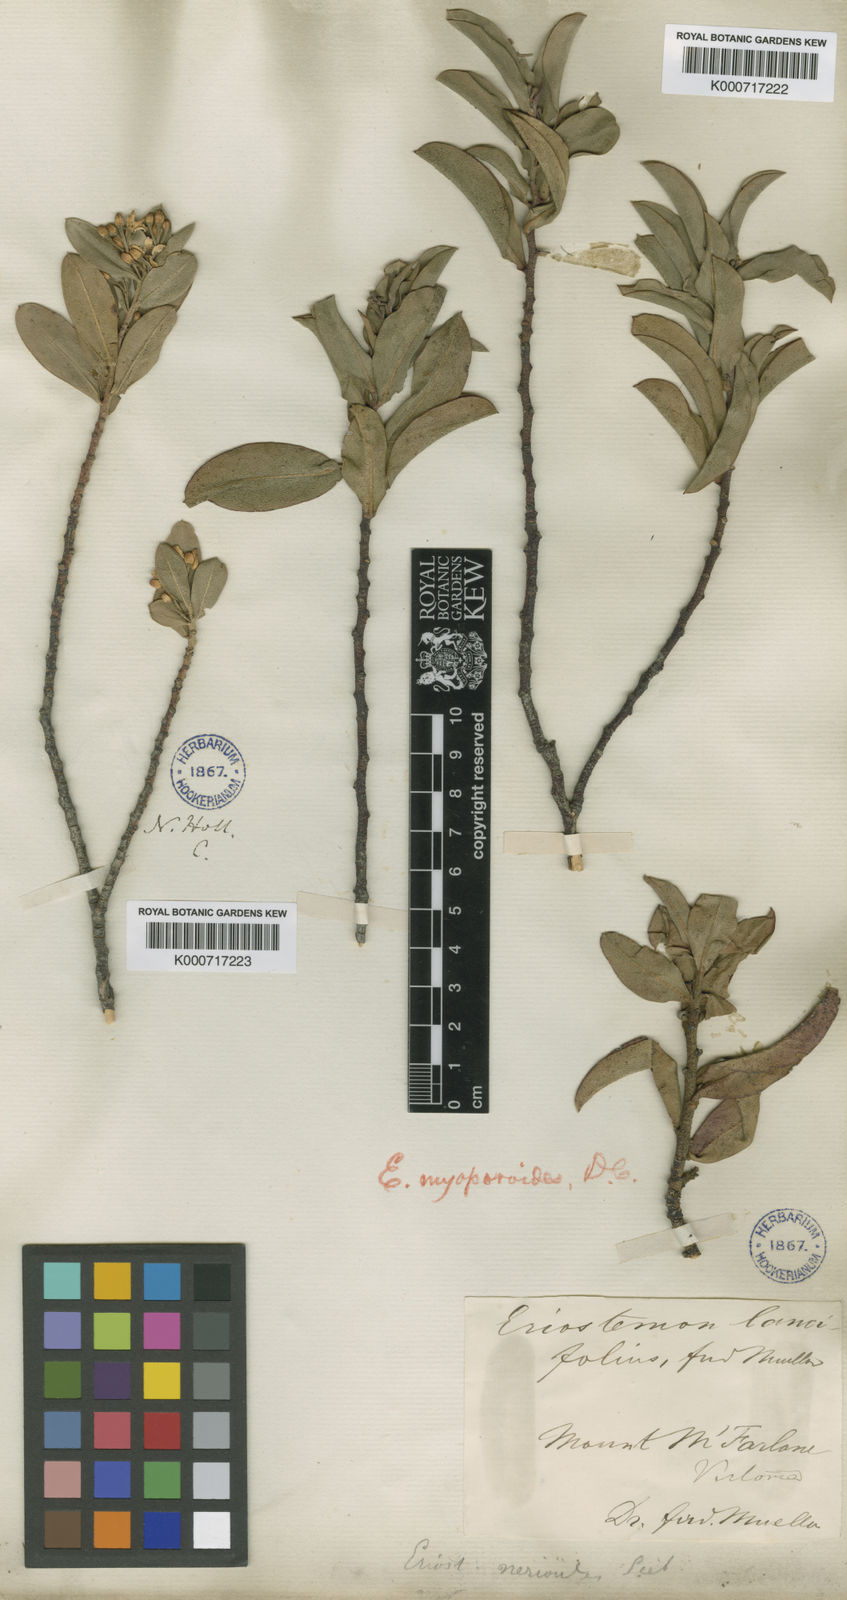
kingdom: Plantae
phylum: Tracheophyta
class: Magnoliopsida
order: Sapindales
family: Rutaceae
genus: Philotheca
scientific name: Philotheca myoporoides
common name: Longleaf waxflower
